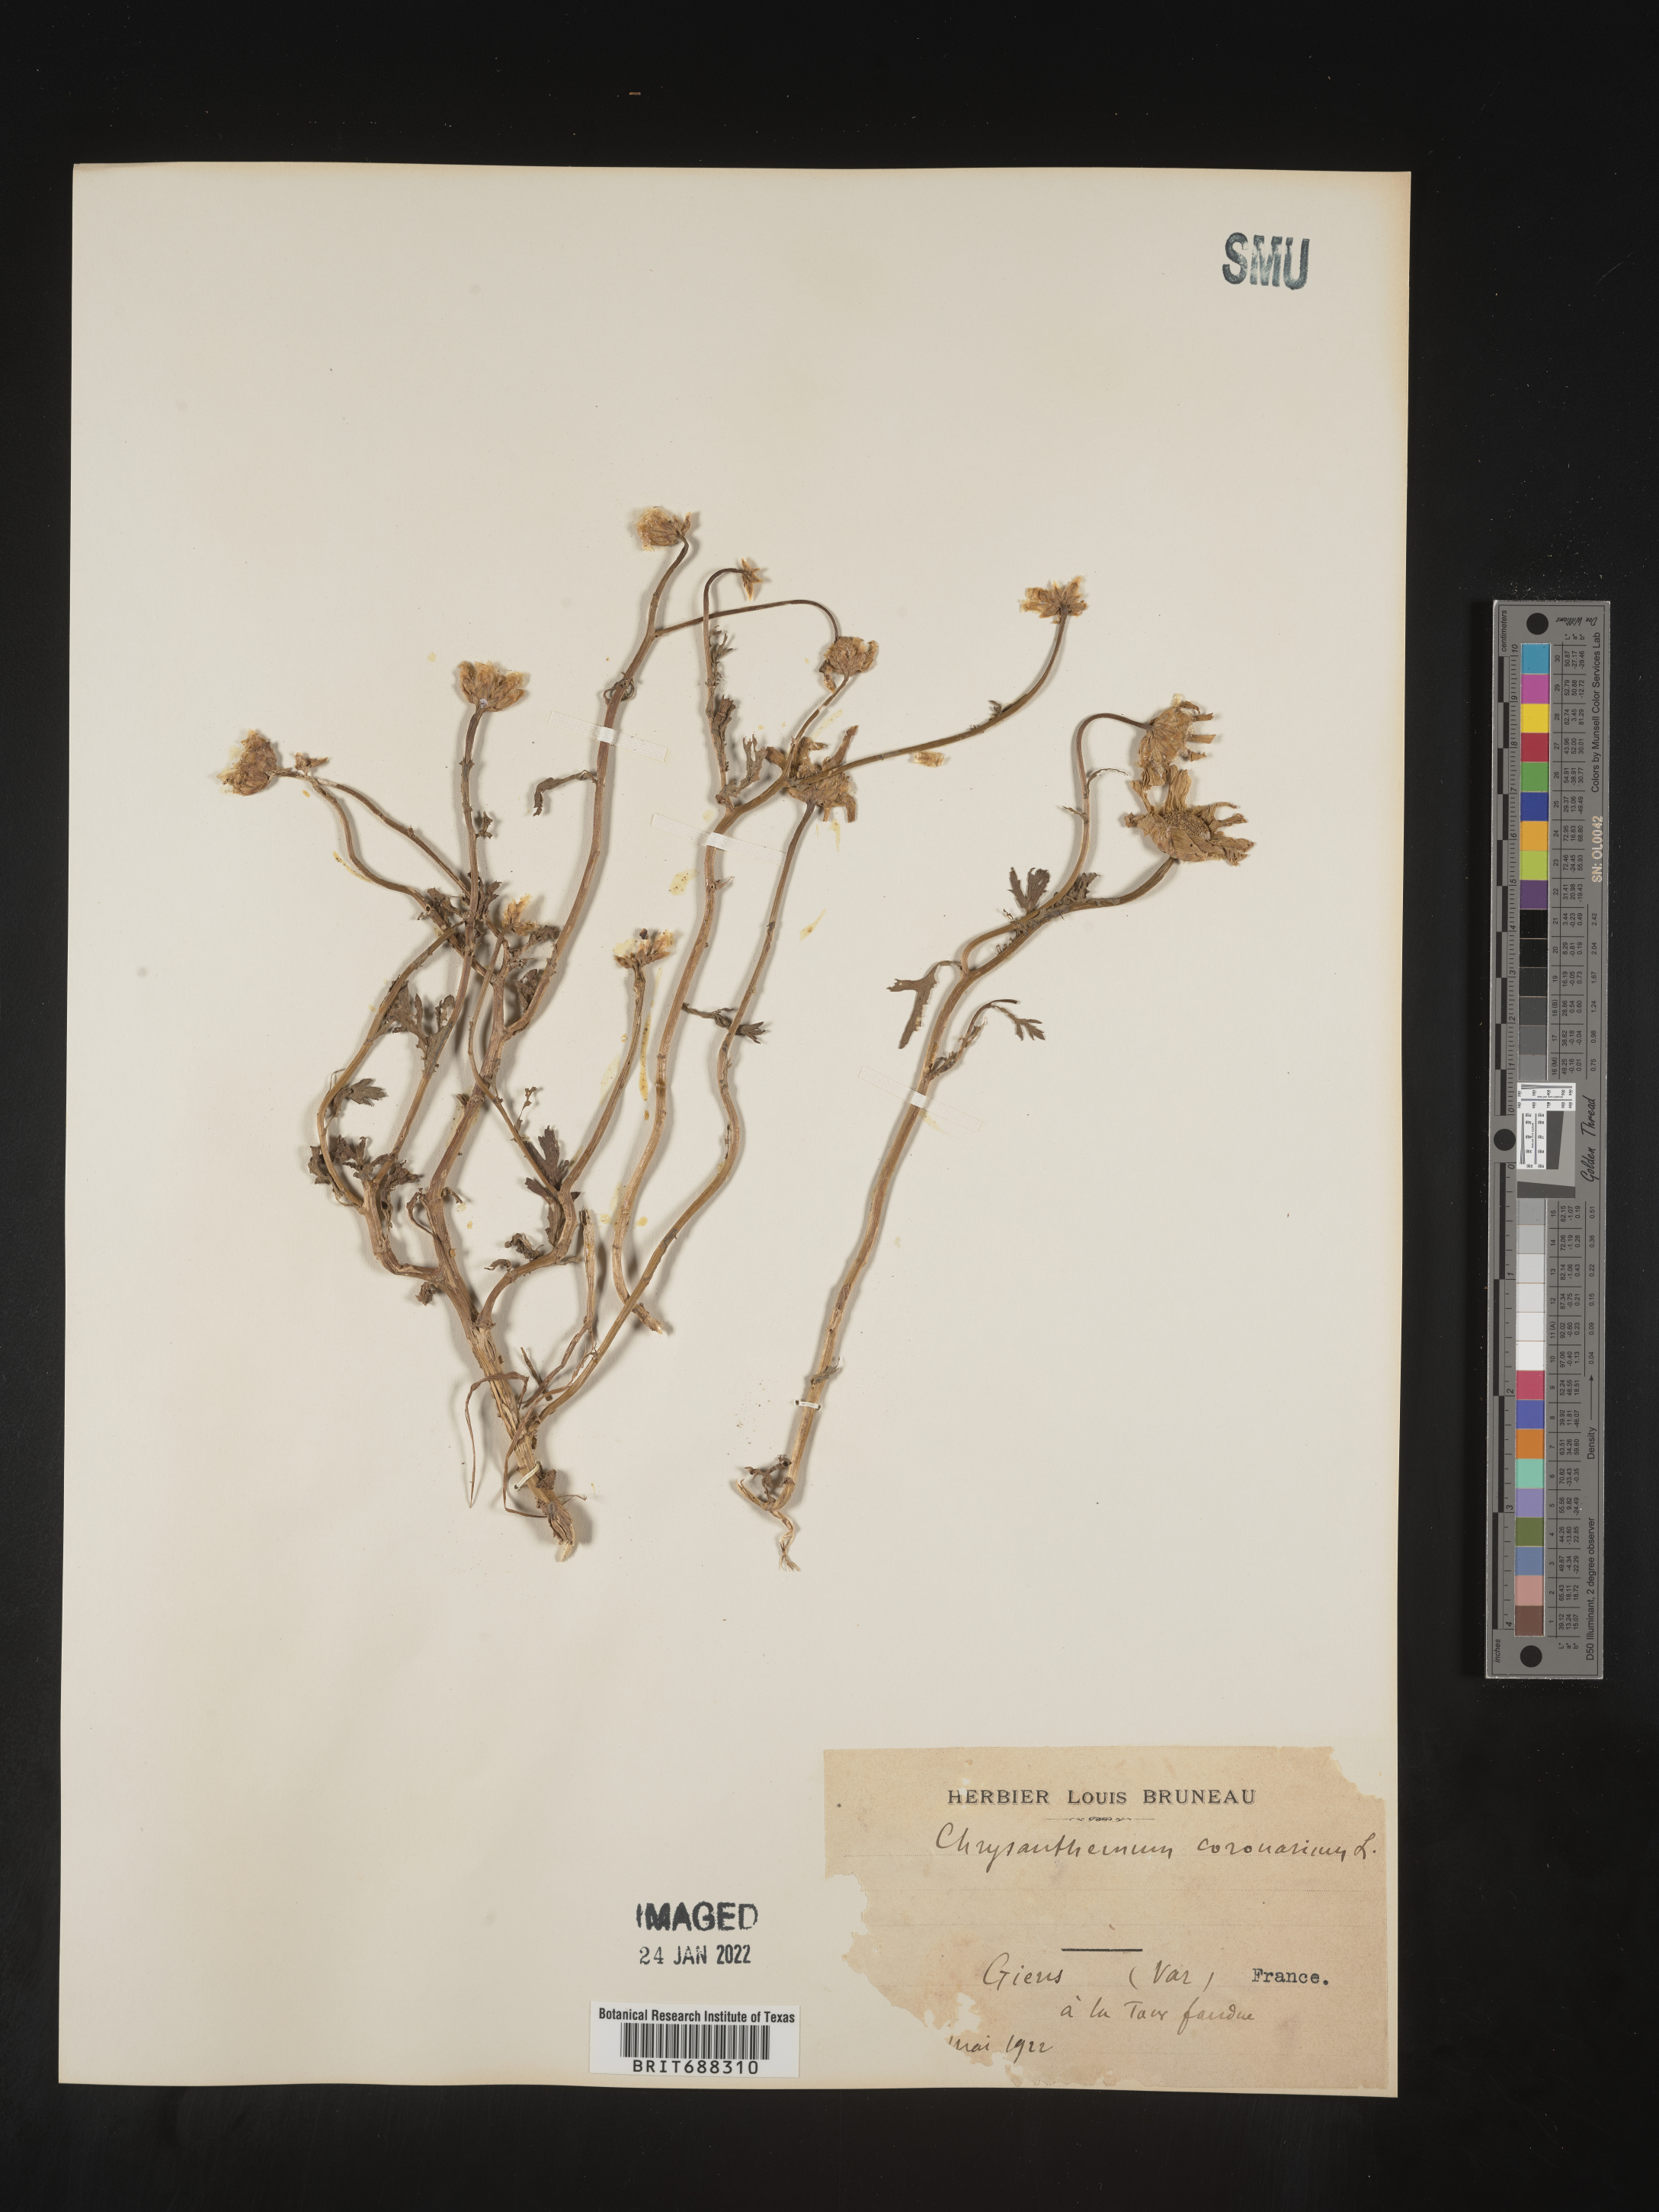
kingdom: Plantae
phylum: Tracheophyta
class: Magnoliopsida
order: Asterales
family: Asteraceae
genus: Chrysanthemum
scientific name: Chrysanthemum
